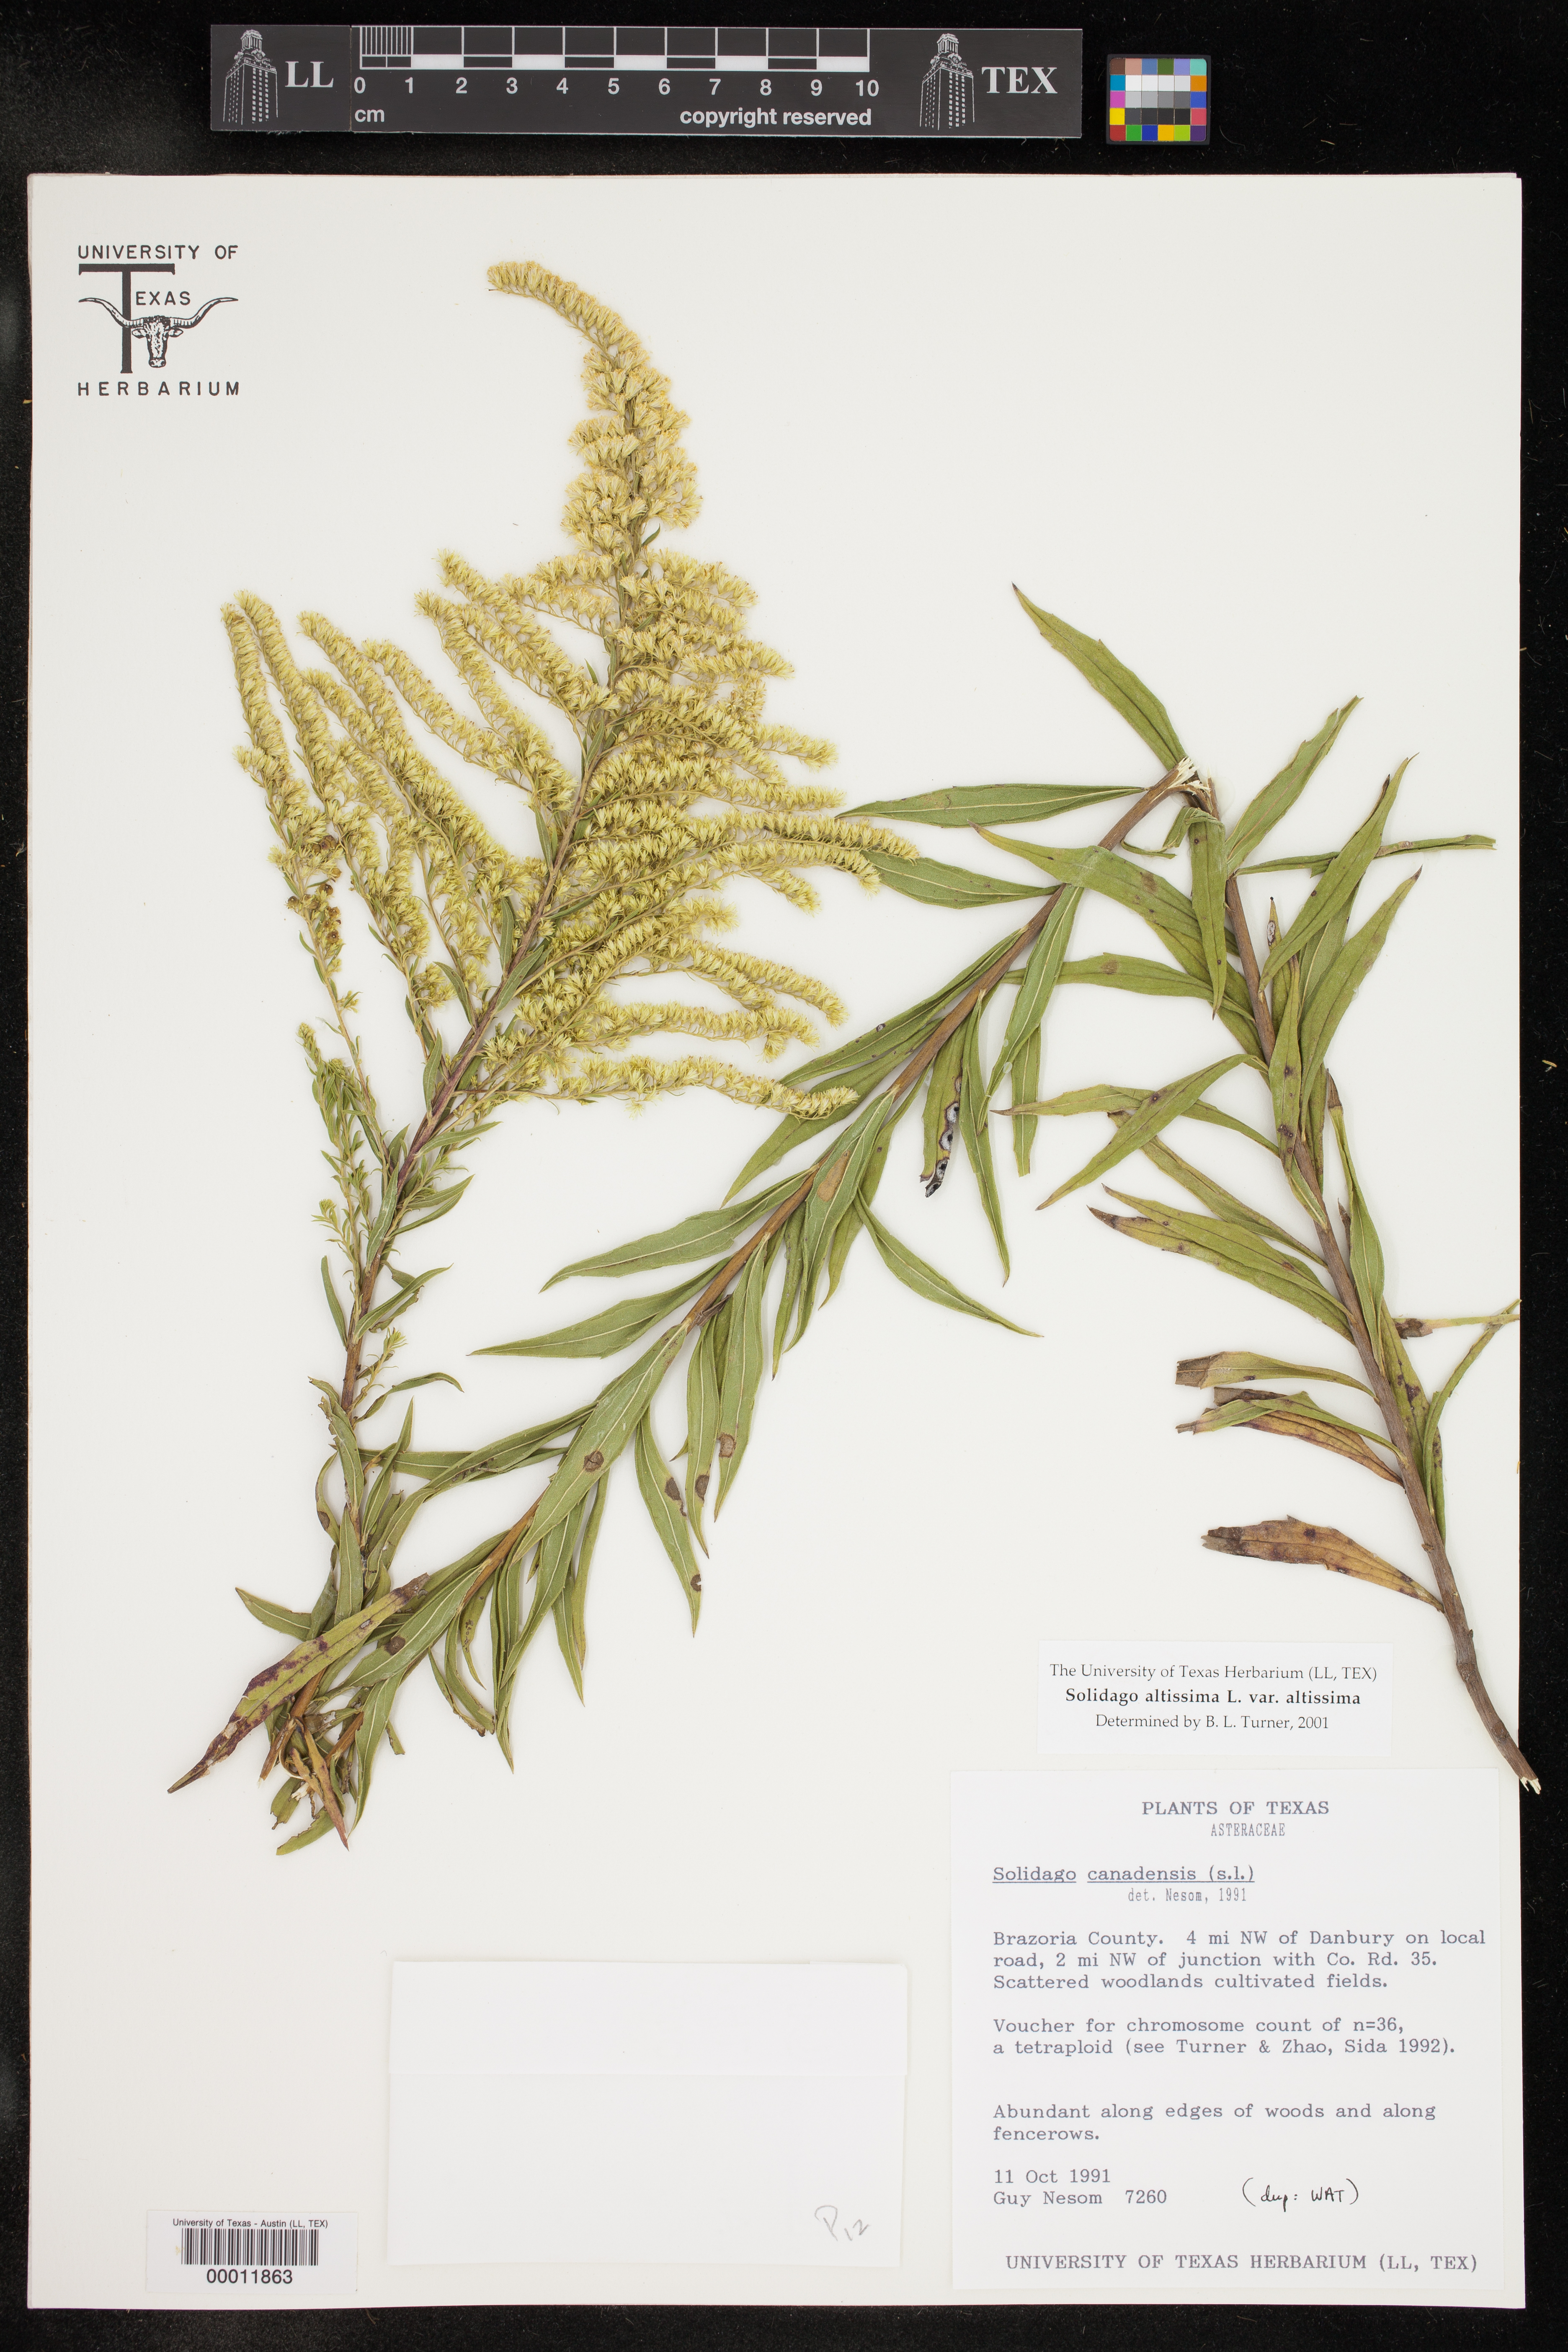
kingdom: Plantae
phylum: Tracheophyta
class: Magnoliopsida
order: Asterales
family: Asteraceae
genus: Solidago
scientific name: Solidago altissima
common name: Late goldenrod
